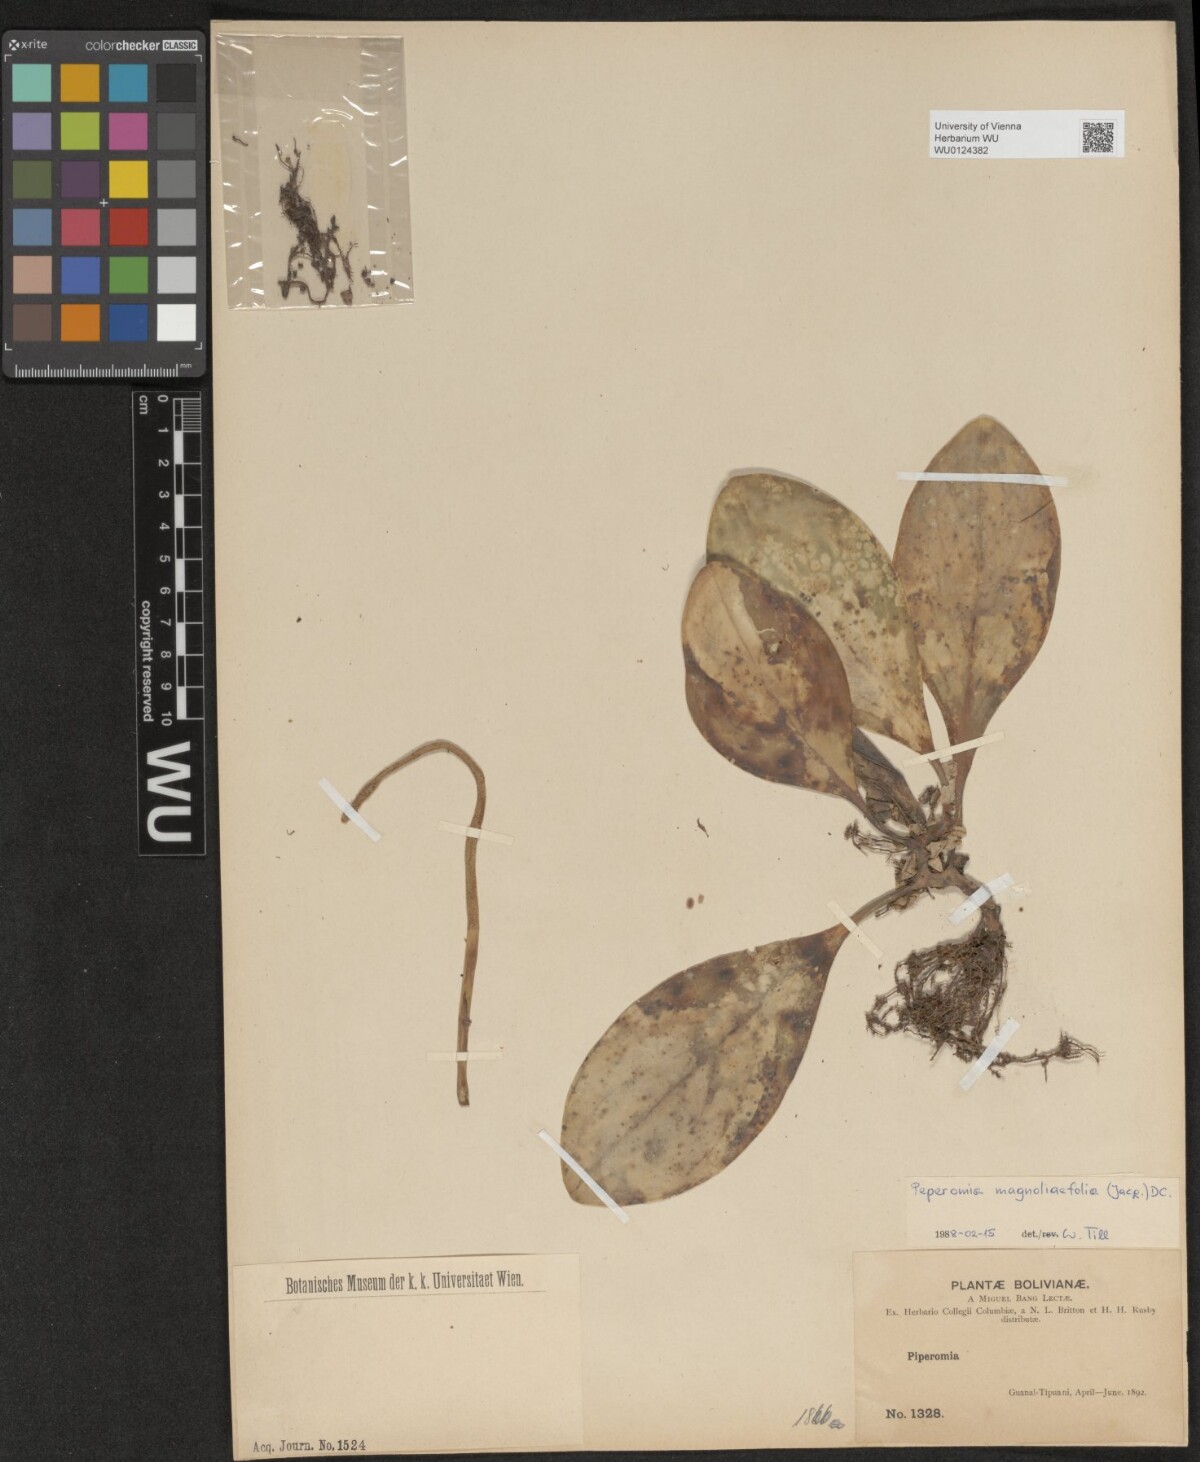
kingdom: Plantae
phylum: Tracheophyta
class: Magnoliopsida
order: Piperales
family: Piperaceae
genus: Peperomia
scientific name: Peperomia magnoliifolia
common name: Spoonleaf peperomia
